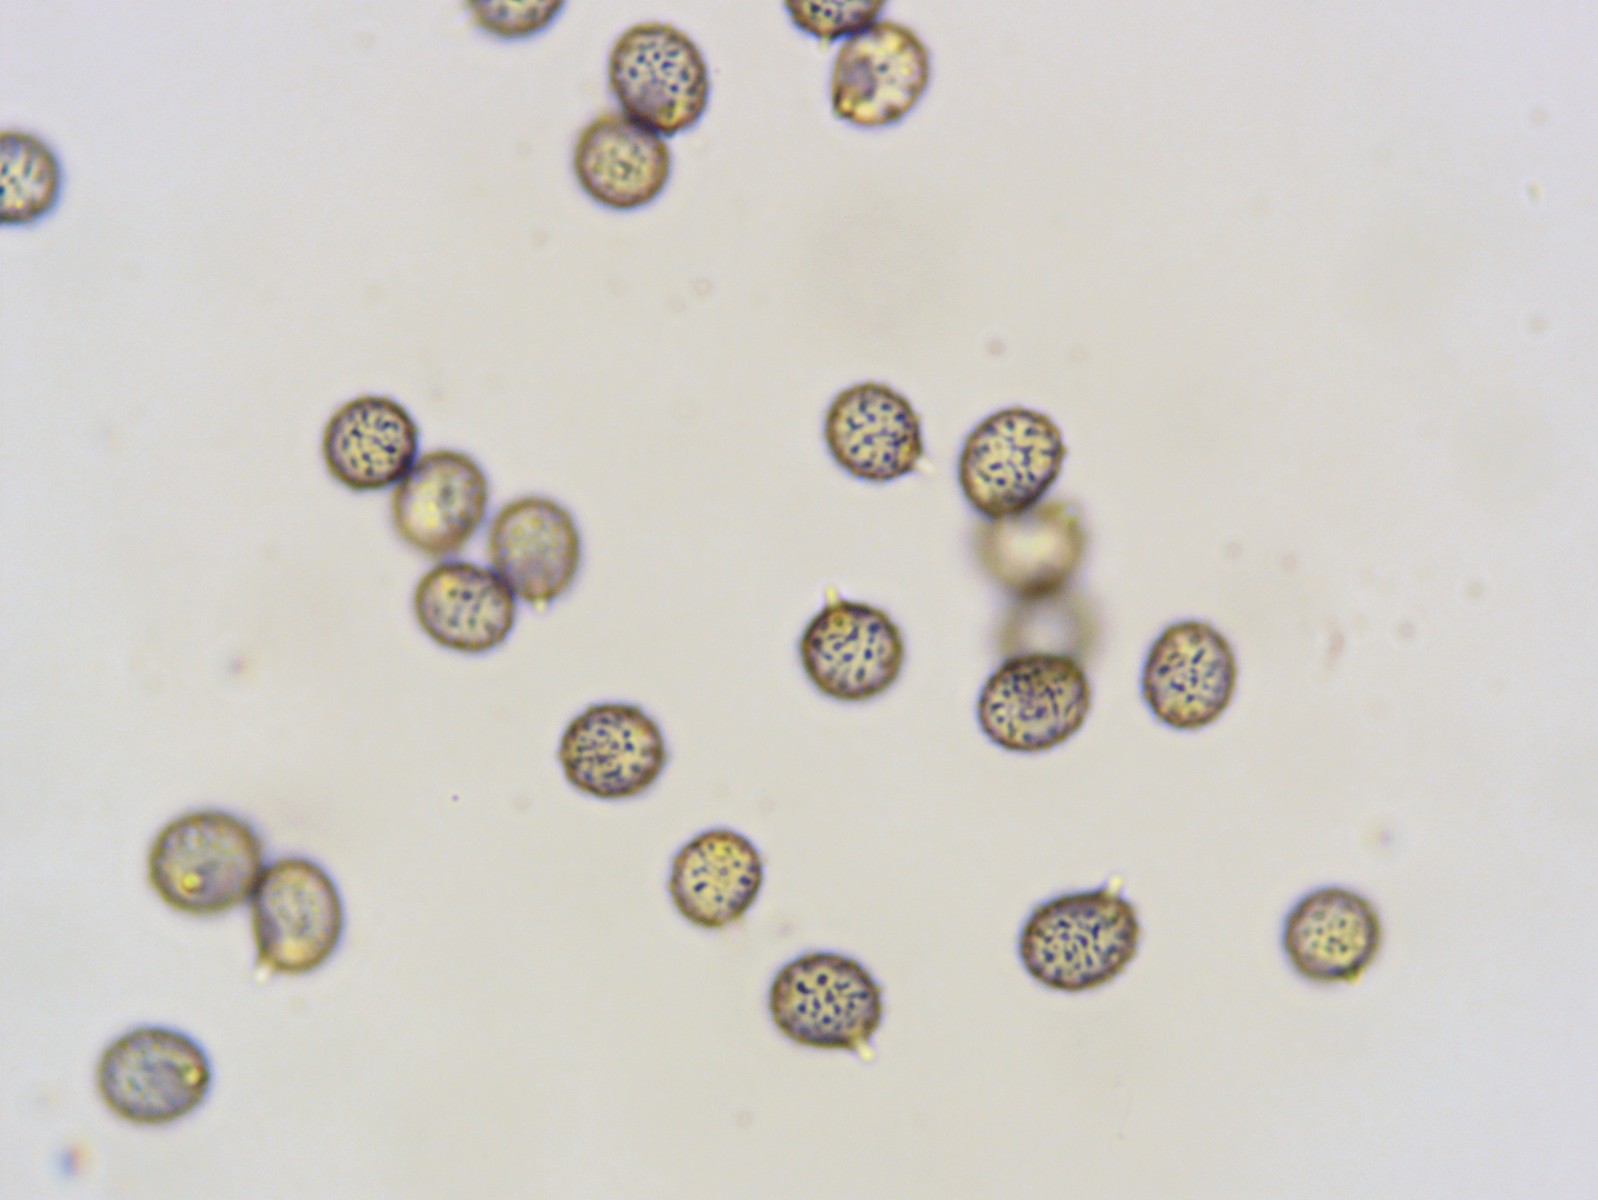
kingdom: Fungi
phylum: Basidiomycota
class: Agaricomycetes
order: Russulales
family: Russulaceae
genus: Russula
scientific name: Russula rhodopus
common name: lak-skørhat
